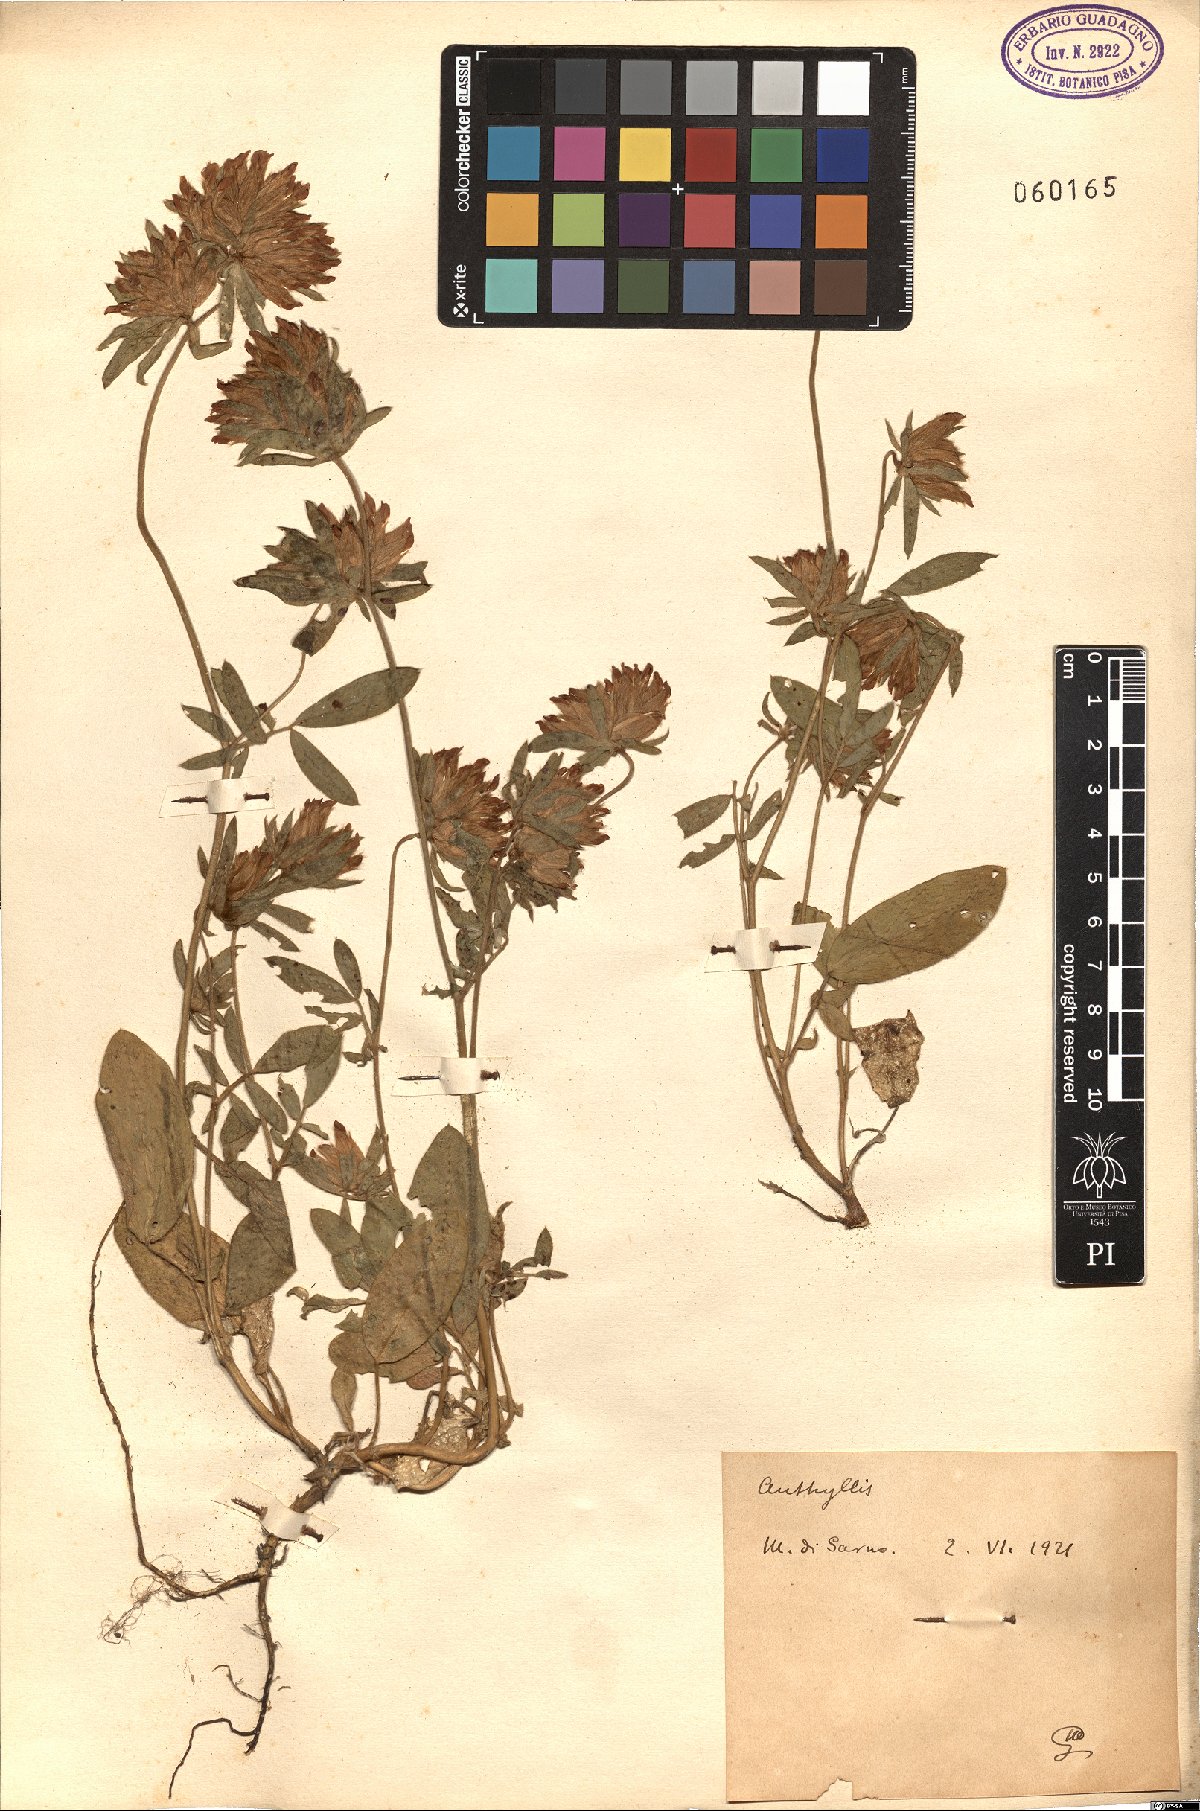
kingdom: Plantae
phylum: Tracheophyta
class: Magnoliopsida
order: Fabales
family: Fabaceae
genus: Anthyllis
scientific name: Anthyllis
